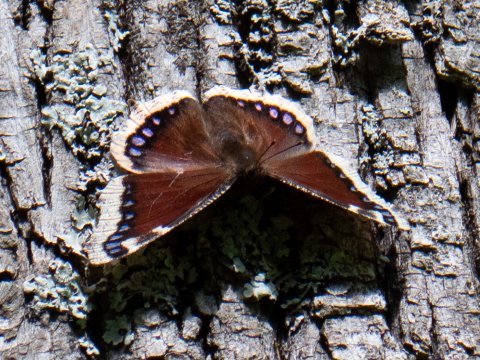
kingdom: Animalia
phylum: Arthropoda
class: Insecta
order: Lepidoptera
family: Nymphalidae
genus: Nymphalis
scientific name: Nymphalis antiopa
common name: Mourning Cloak
